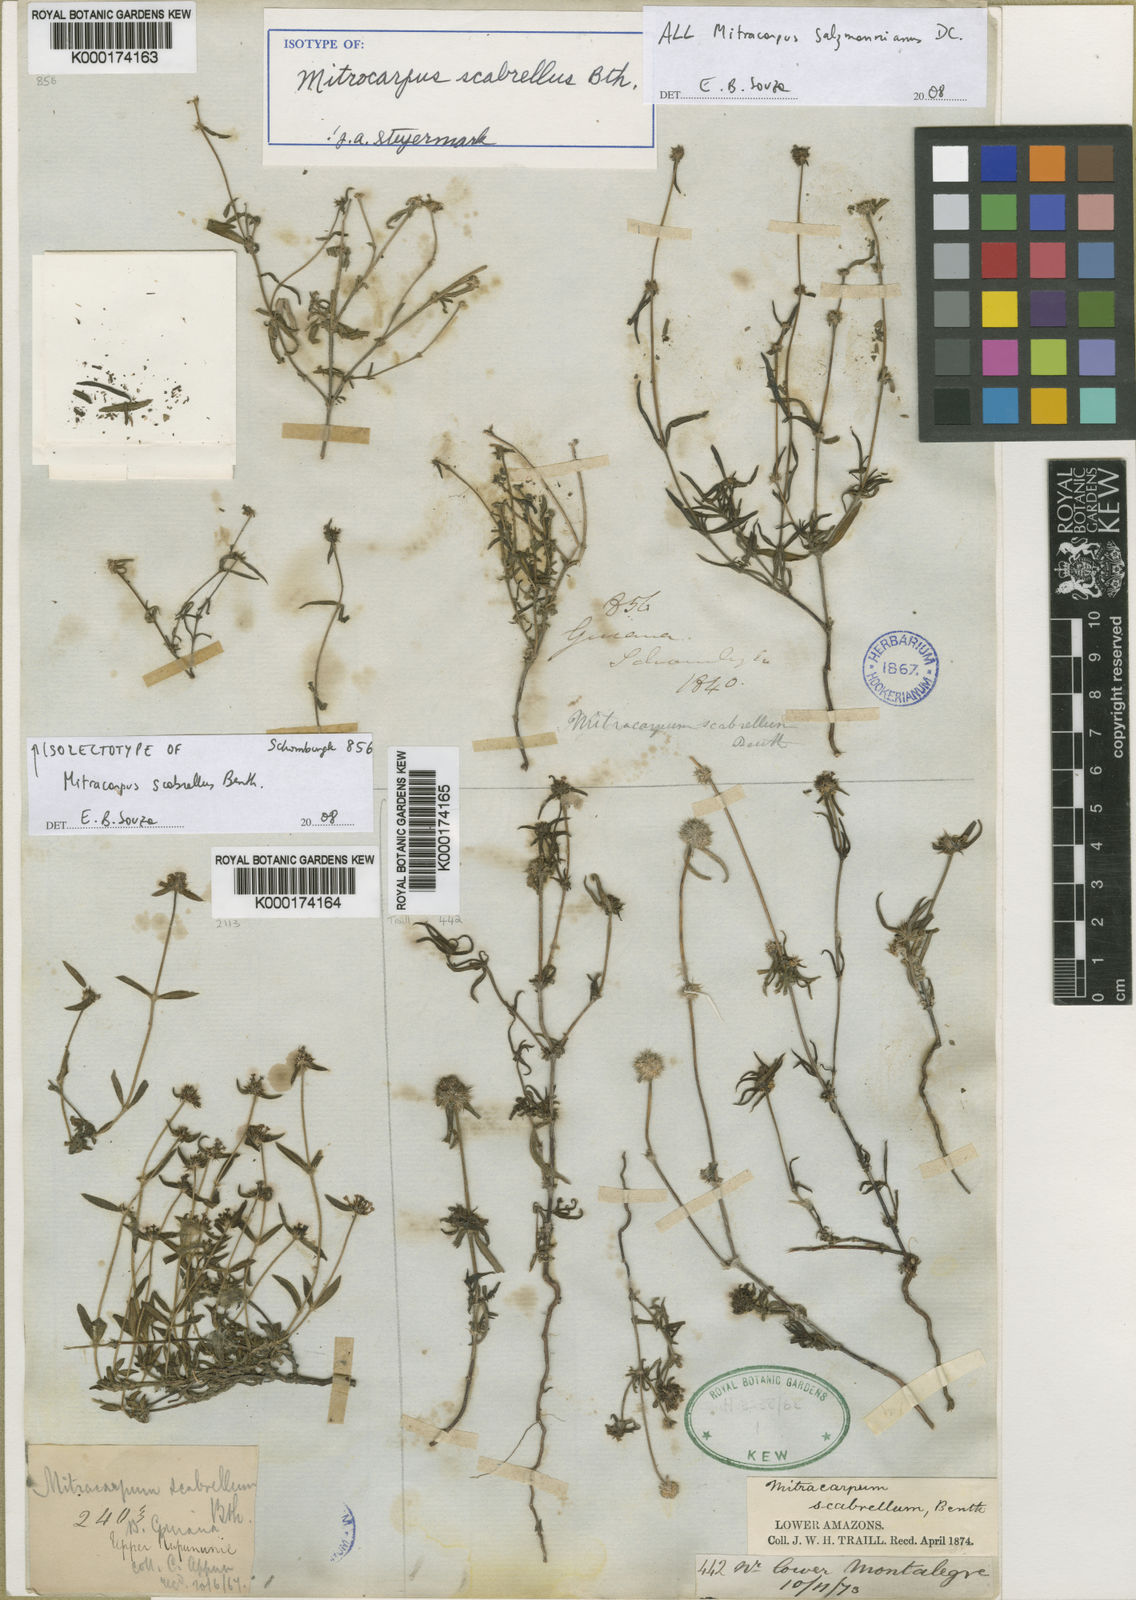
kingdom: Plantae
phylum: Tracheophyta
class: Magnoliopsida
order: Gentianales
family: Rubiaceae
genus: Mitracarpus
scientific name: Mitracarpus salzmannianus
